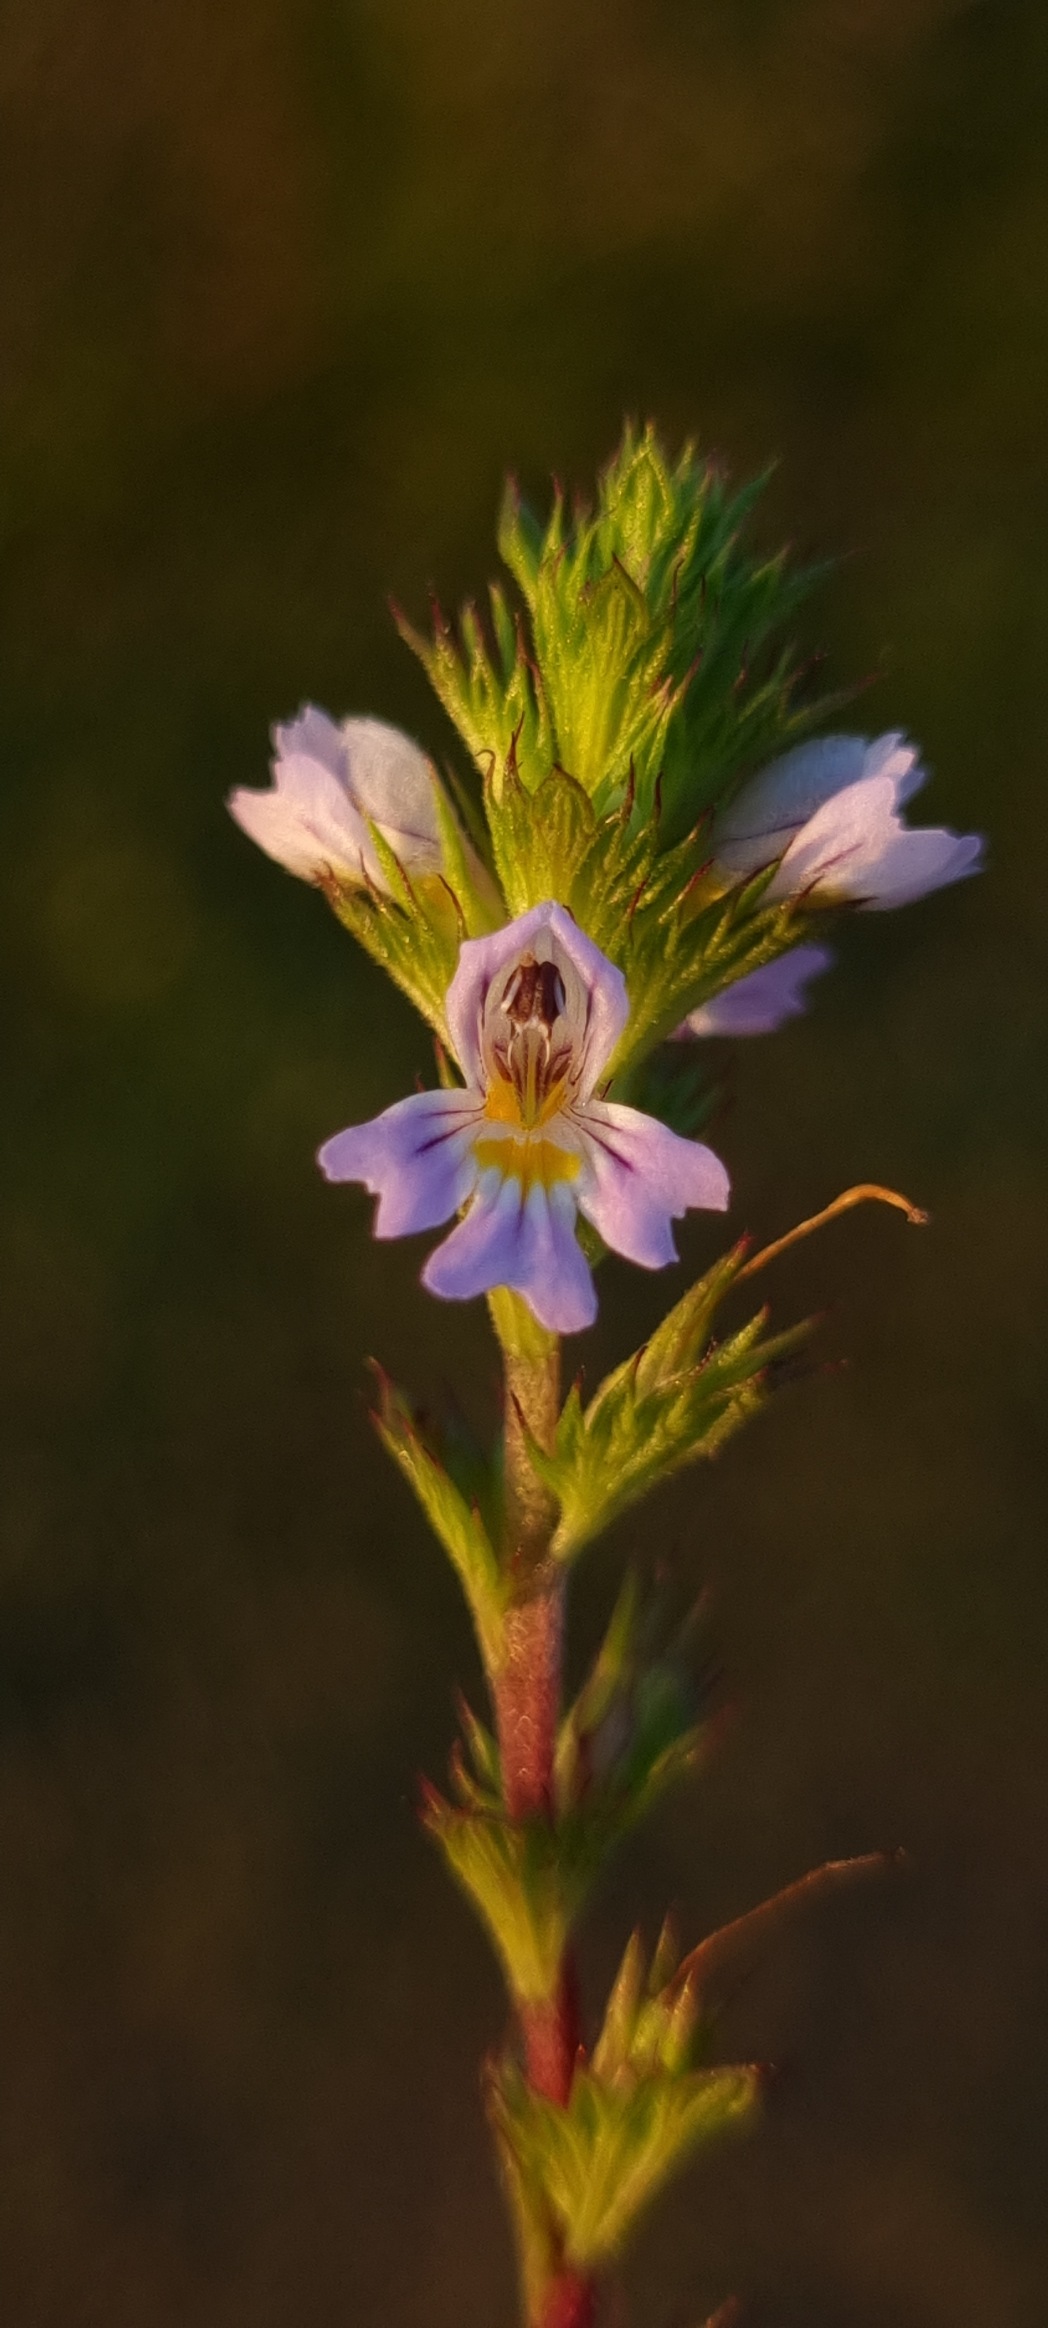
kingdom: Plantae
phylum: Tracheophyta
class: Magnoliopsida
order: Lamiales
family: Orobanchaceae
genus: Euphrasia
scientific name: Euphrasia stricta
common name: Spids øjentrøst
